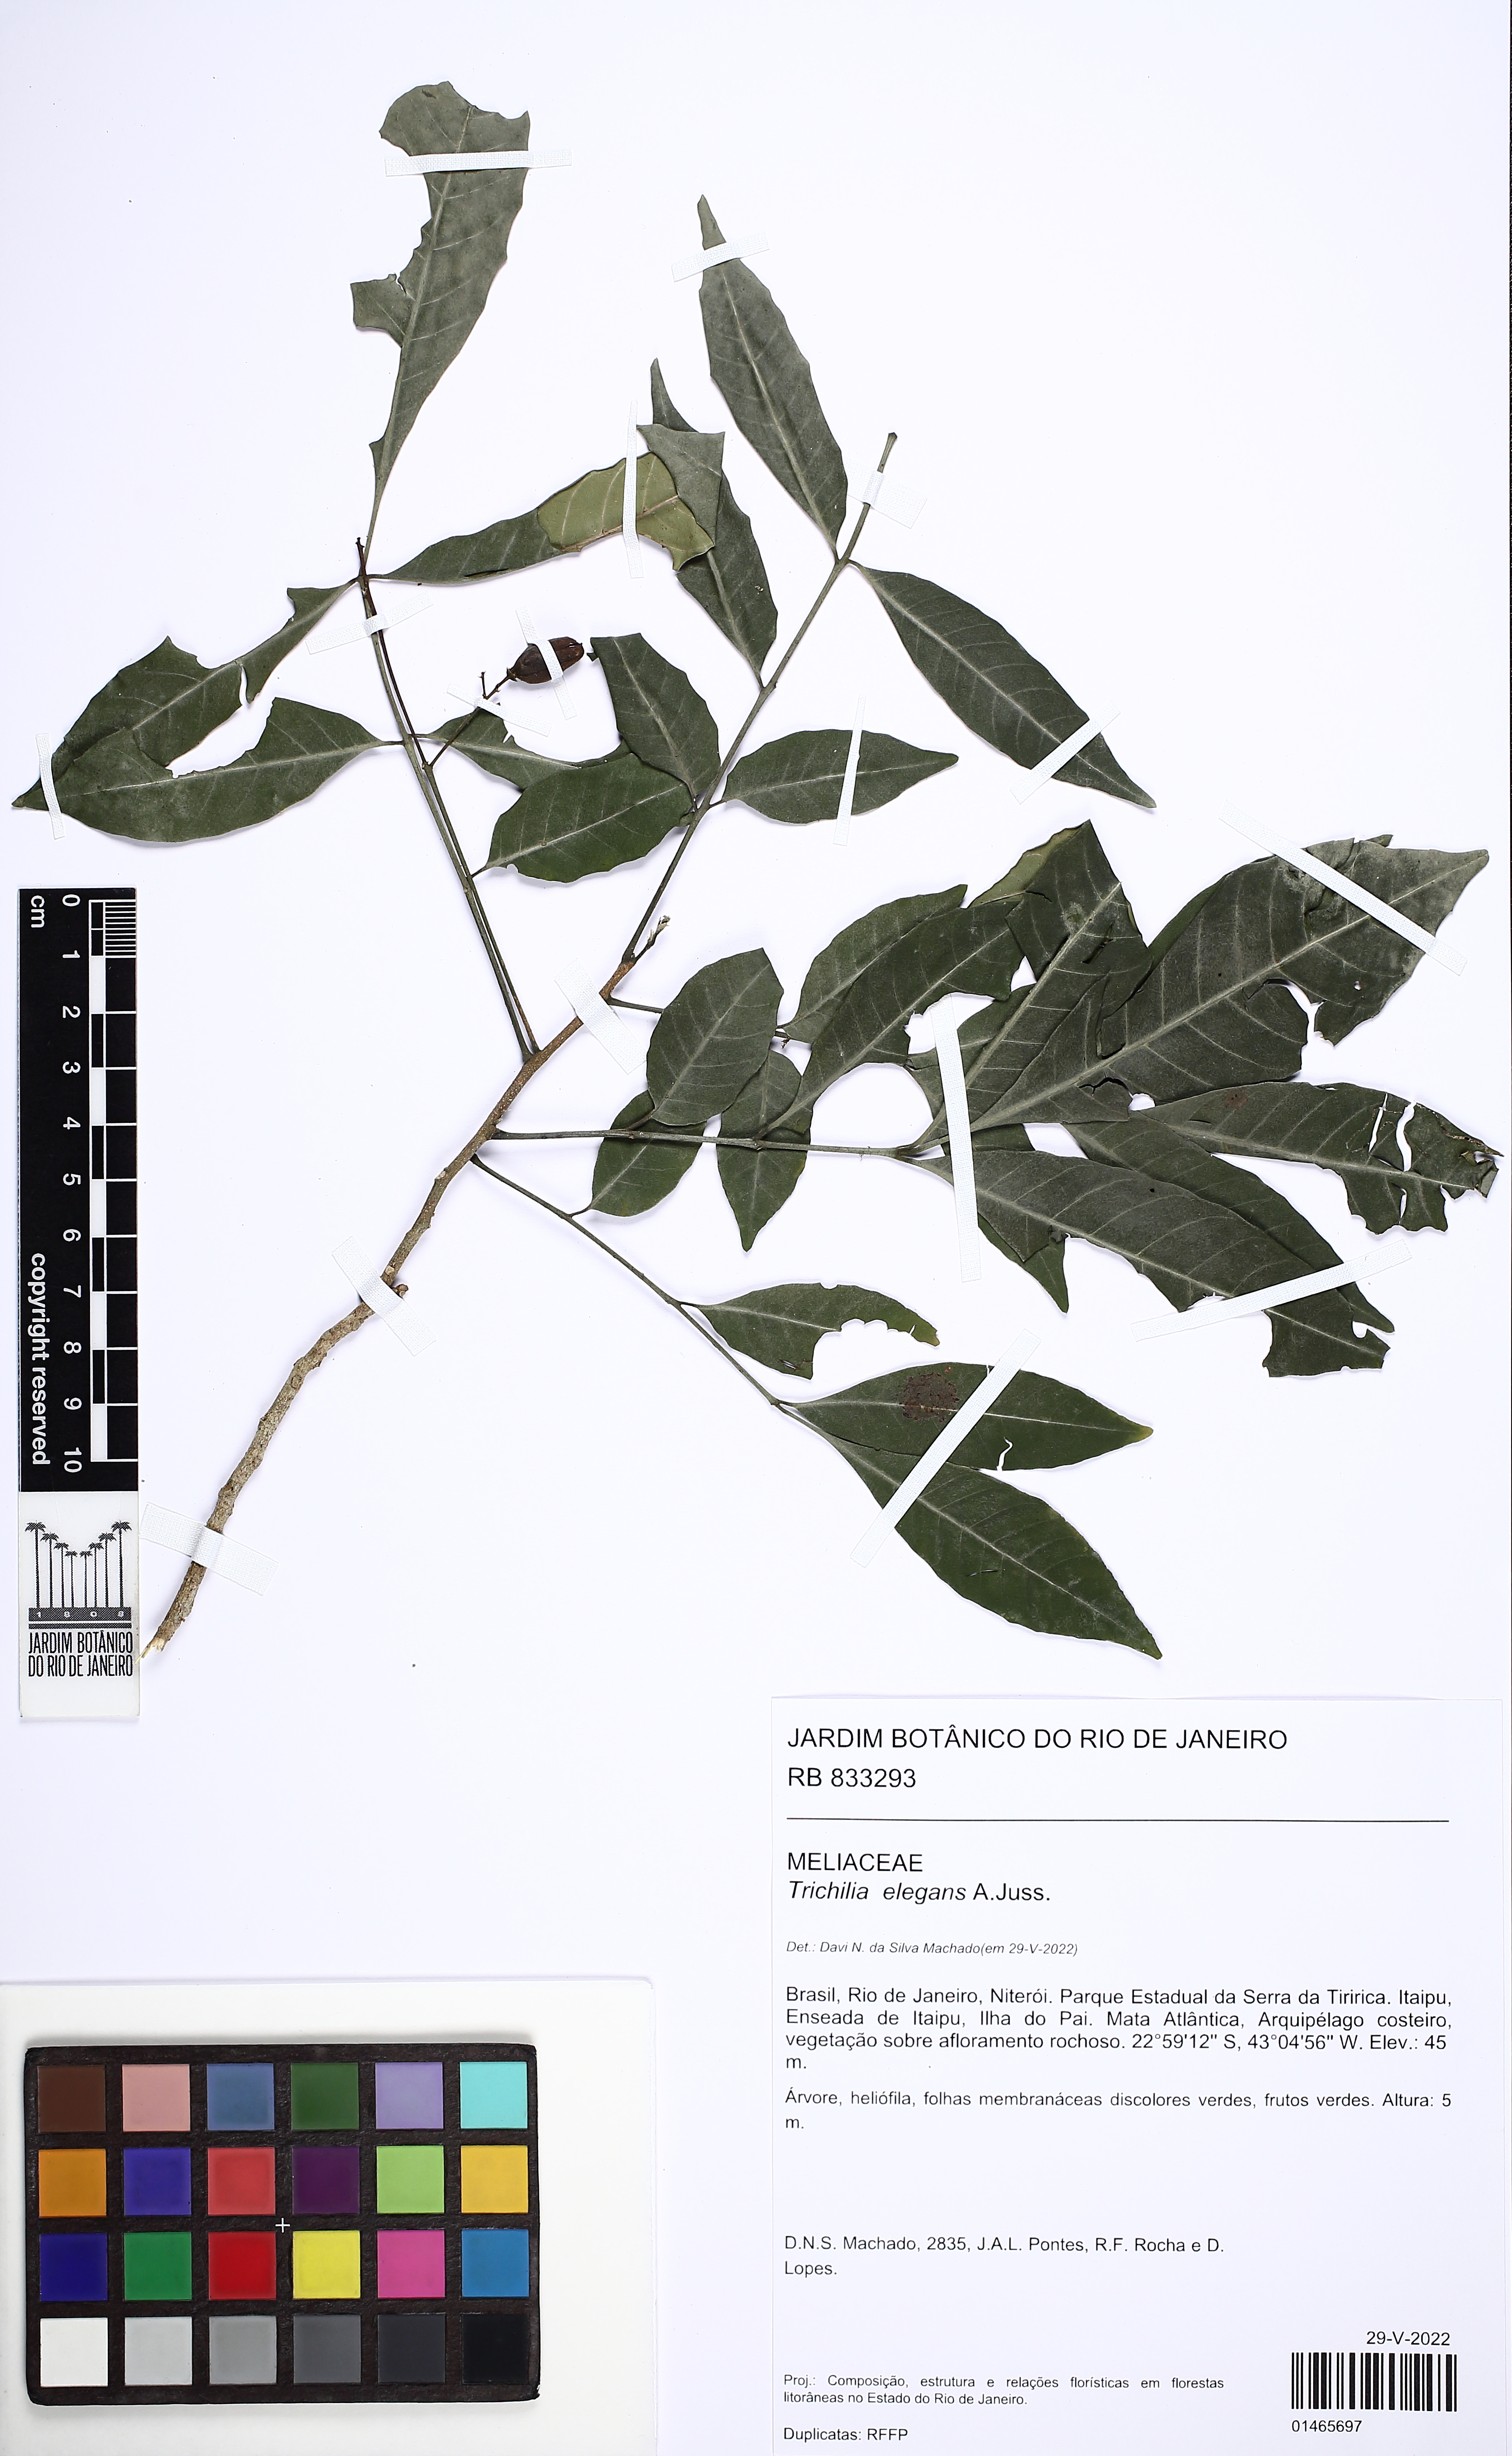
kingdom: Plantae
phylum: Tracheophyta
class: Magnoliopsida
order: Sapindales
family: Meliaceae
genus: Trichilia
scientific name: Trichilia elegans
